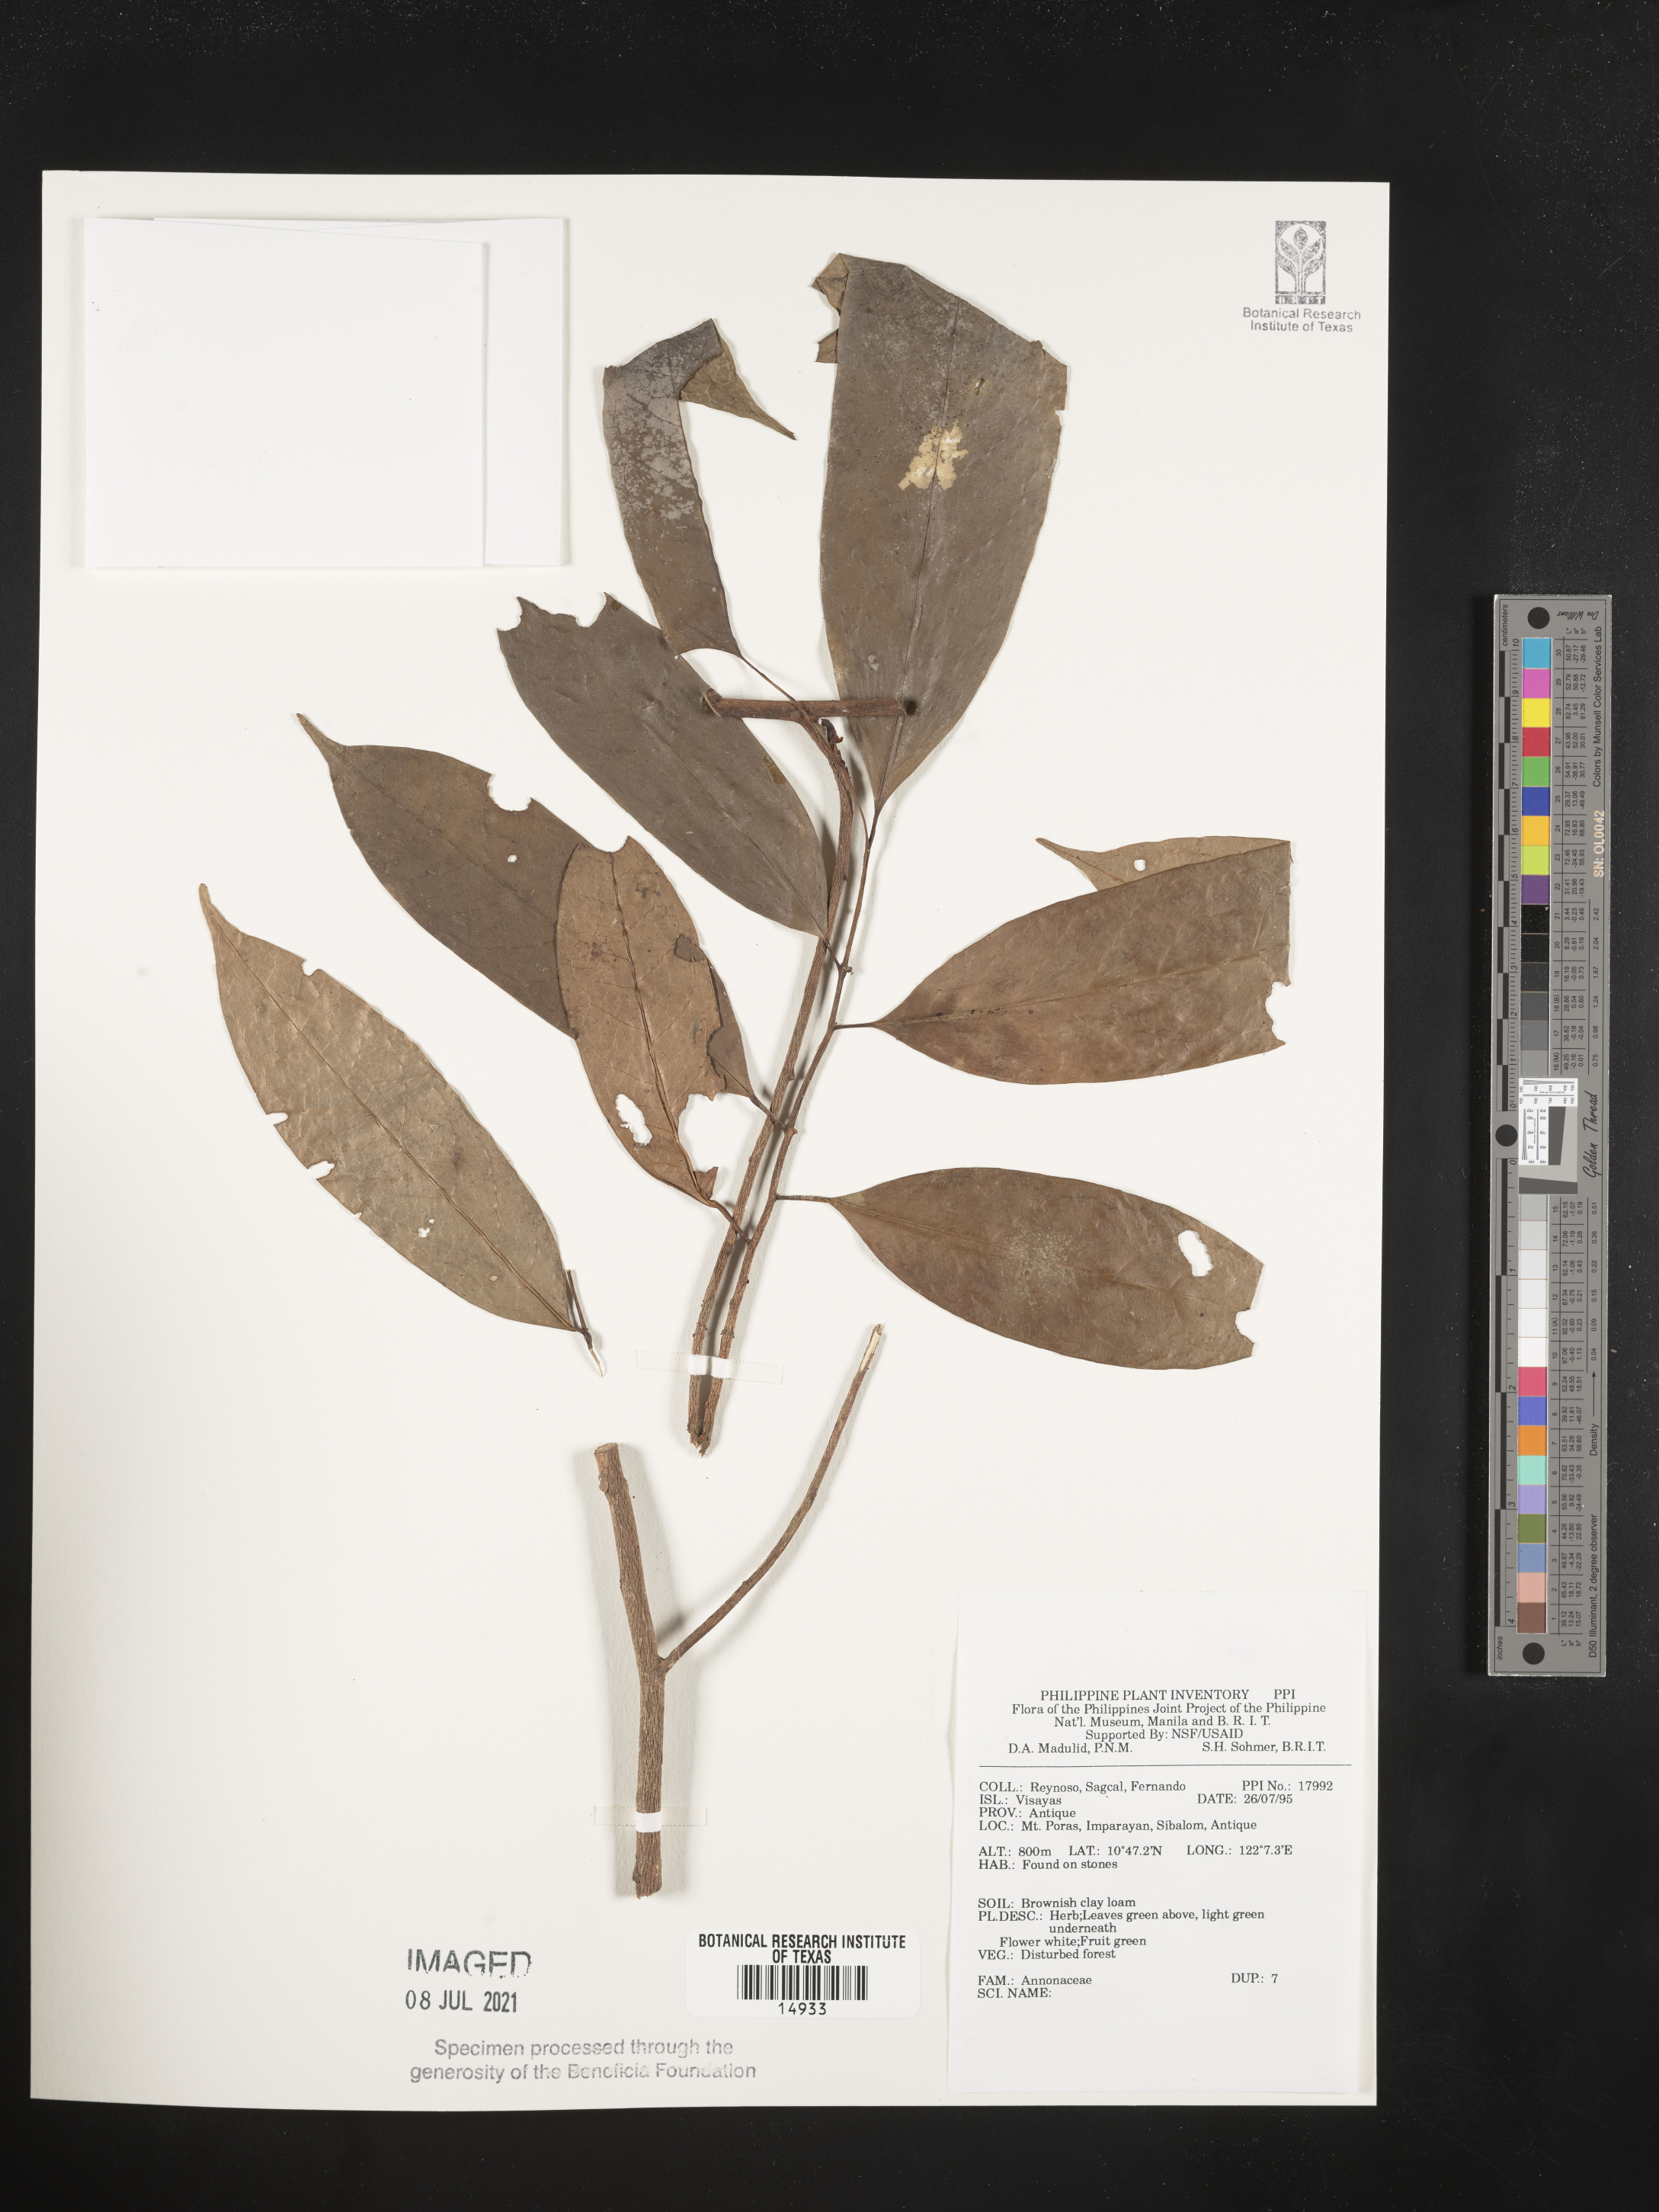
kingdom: Plantae
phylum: Tracheophyta
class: Magnoliopsida
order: Magnoliales
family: Annonaceae
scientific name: Annonaceae
